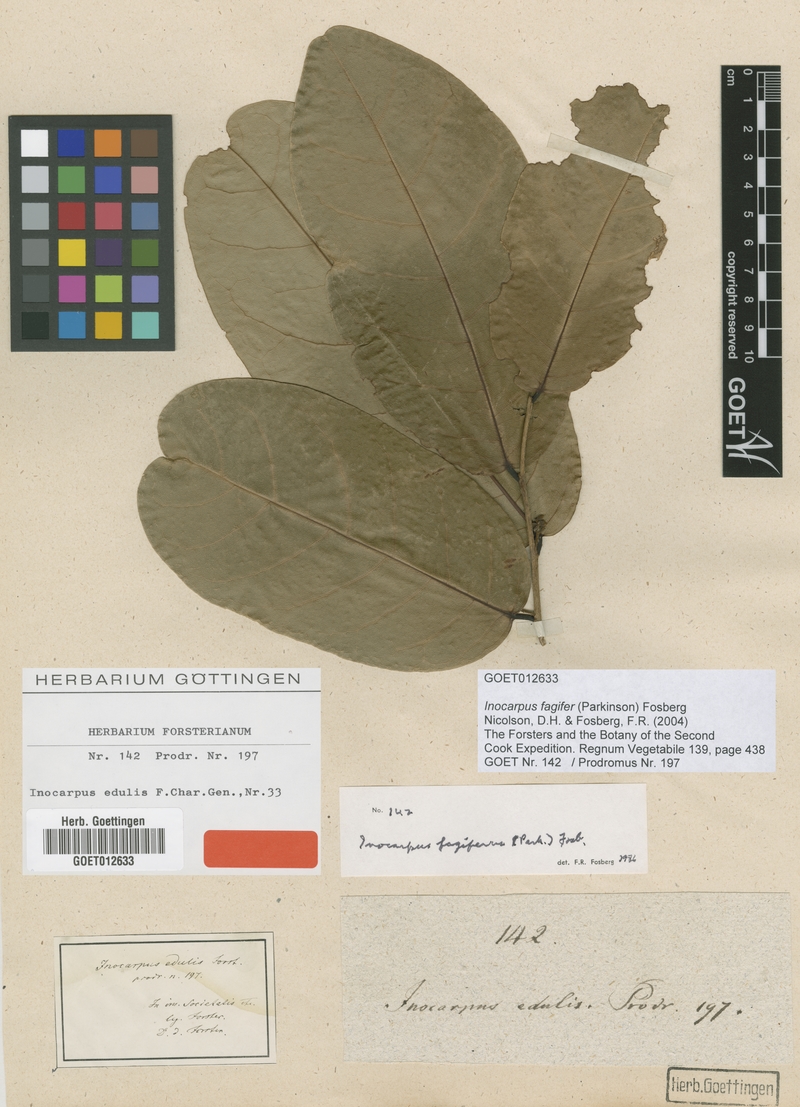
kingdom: Plantae
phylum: Tracheophyta
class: Magnoliopsida
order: Fabales
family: Fabaceae
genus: Inocarpus
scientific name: Inocarpus fagifer
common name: Polynesian chestnut
